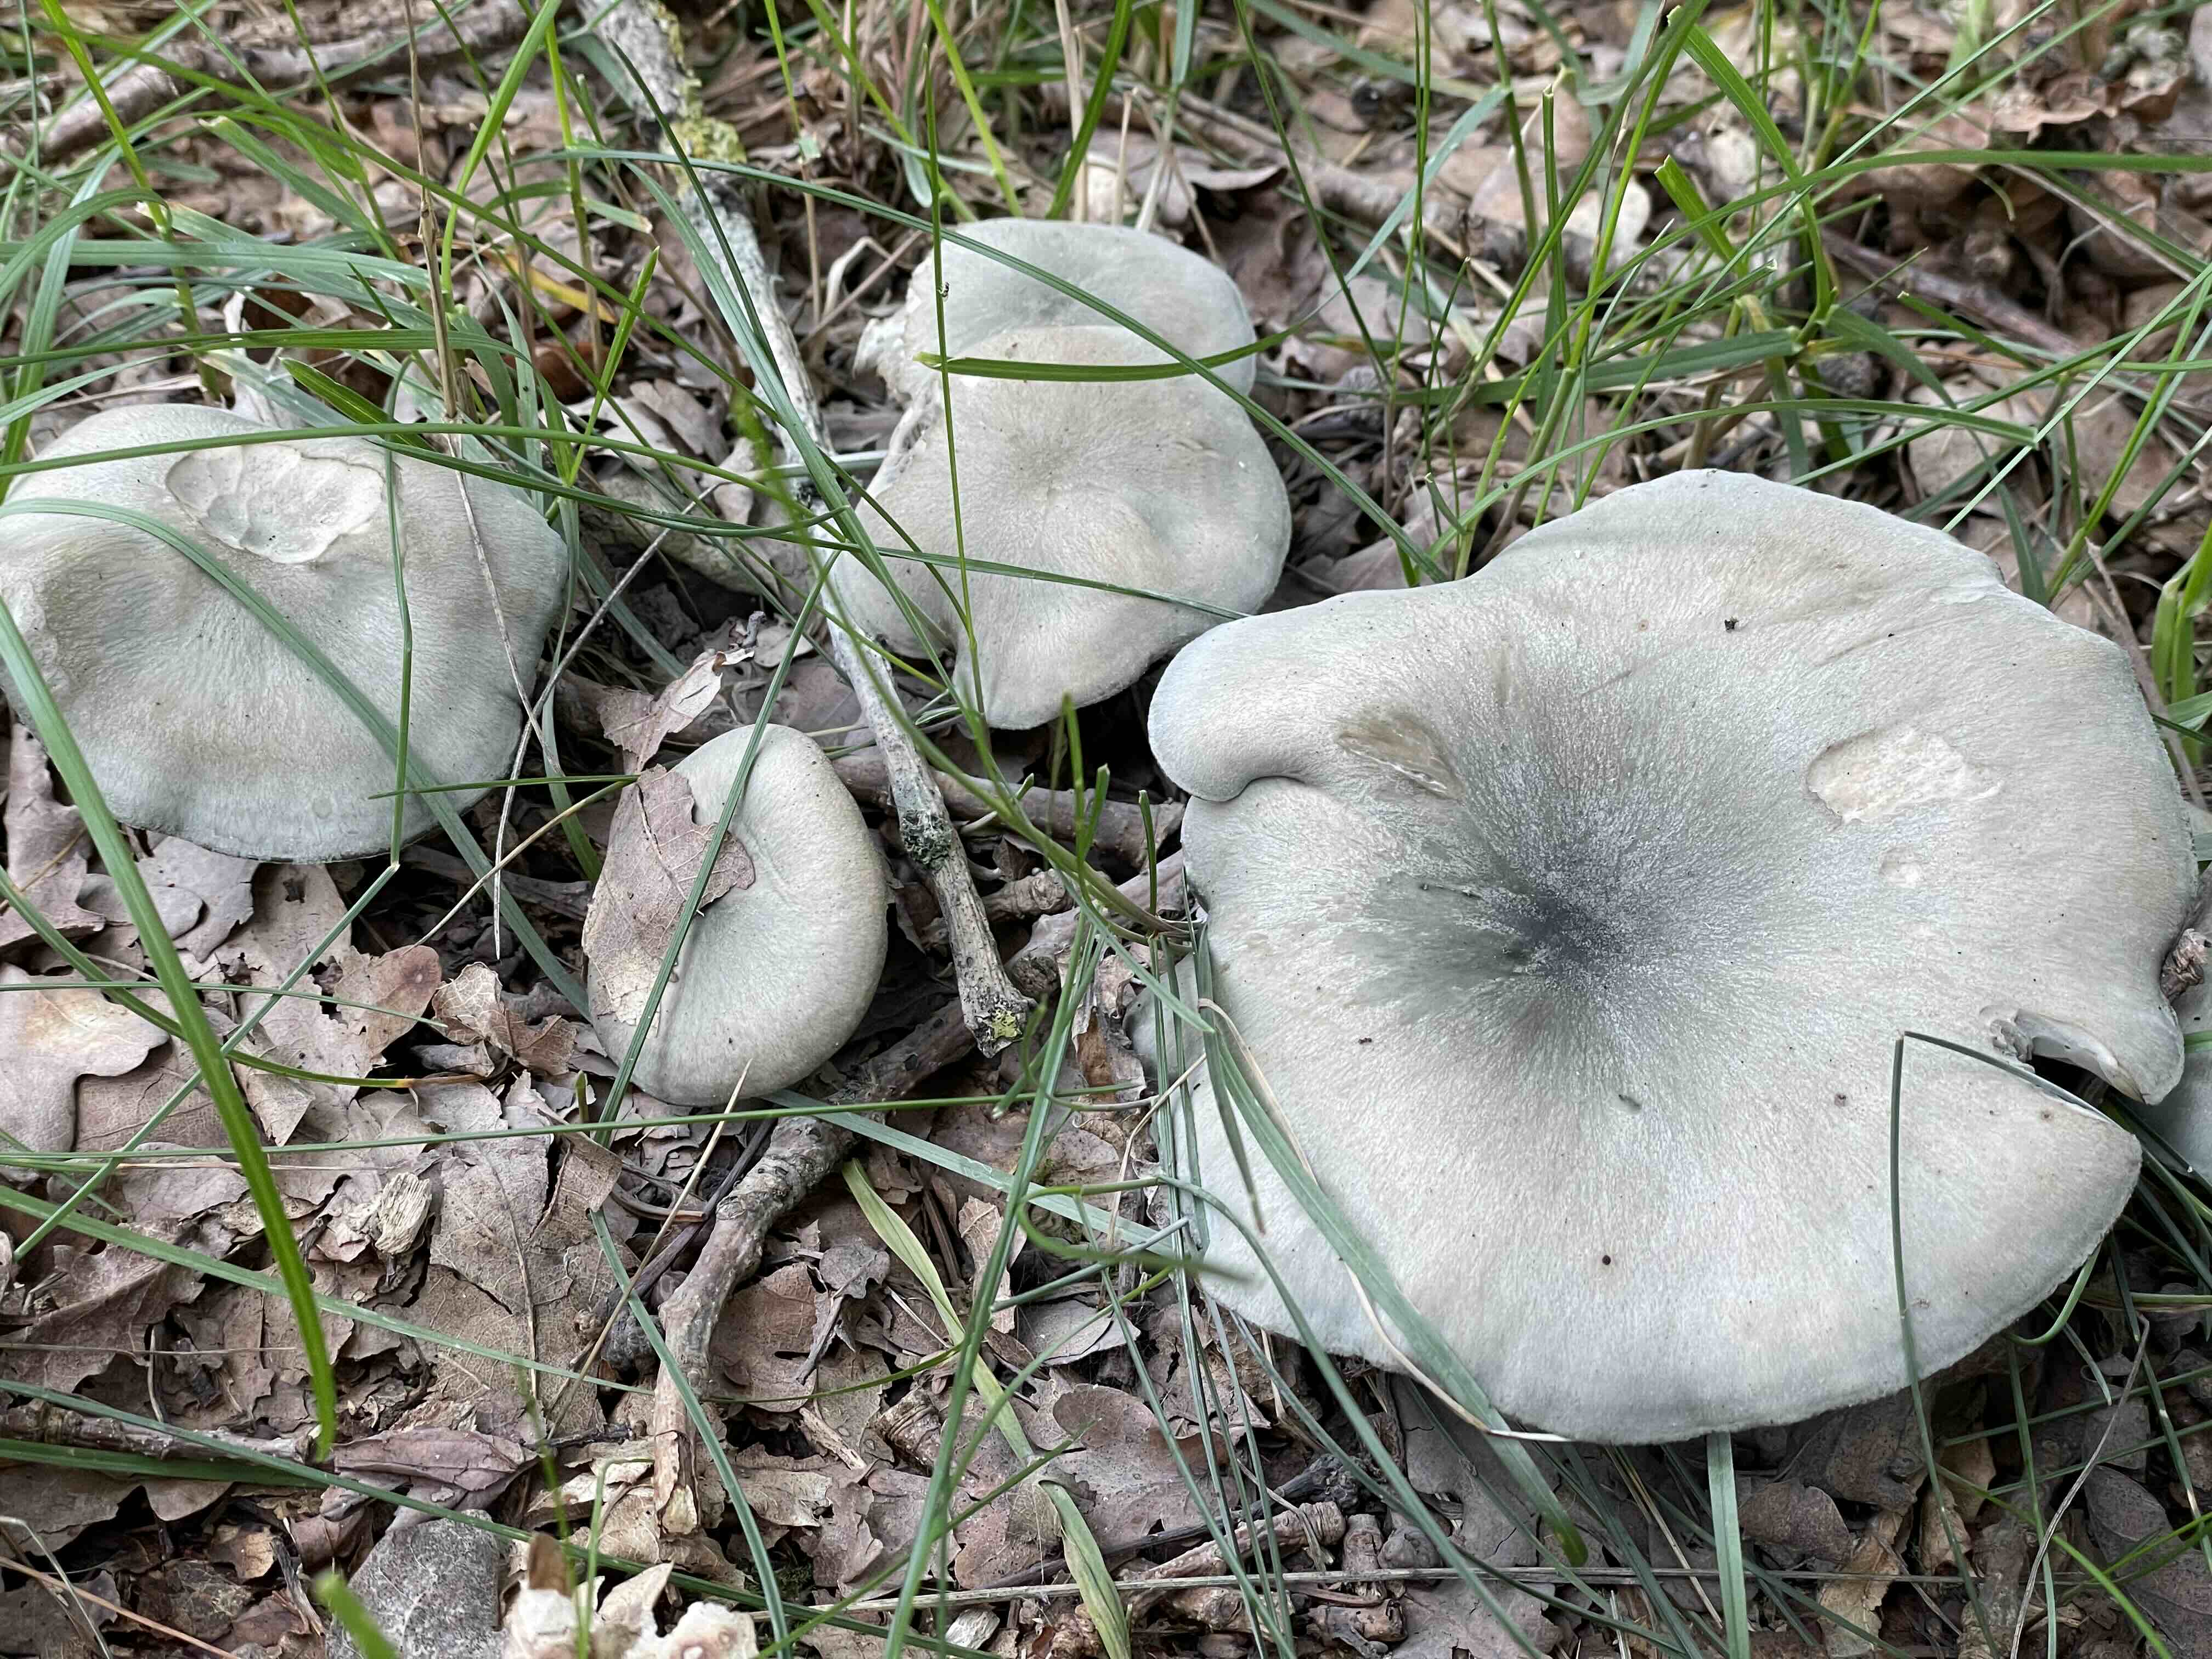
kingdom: Fungi
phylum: Basidiomycota
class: Agaricomycetes
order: Agaricales
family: Tricholomataceae
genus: Clitocybe
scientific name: Clitocybe odora
